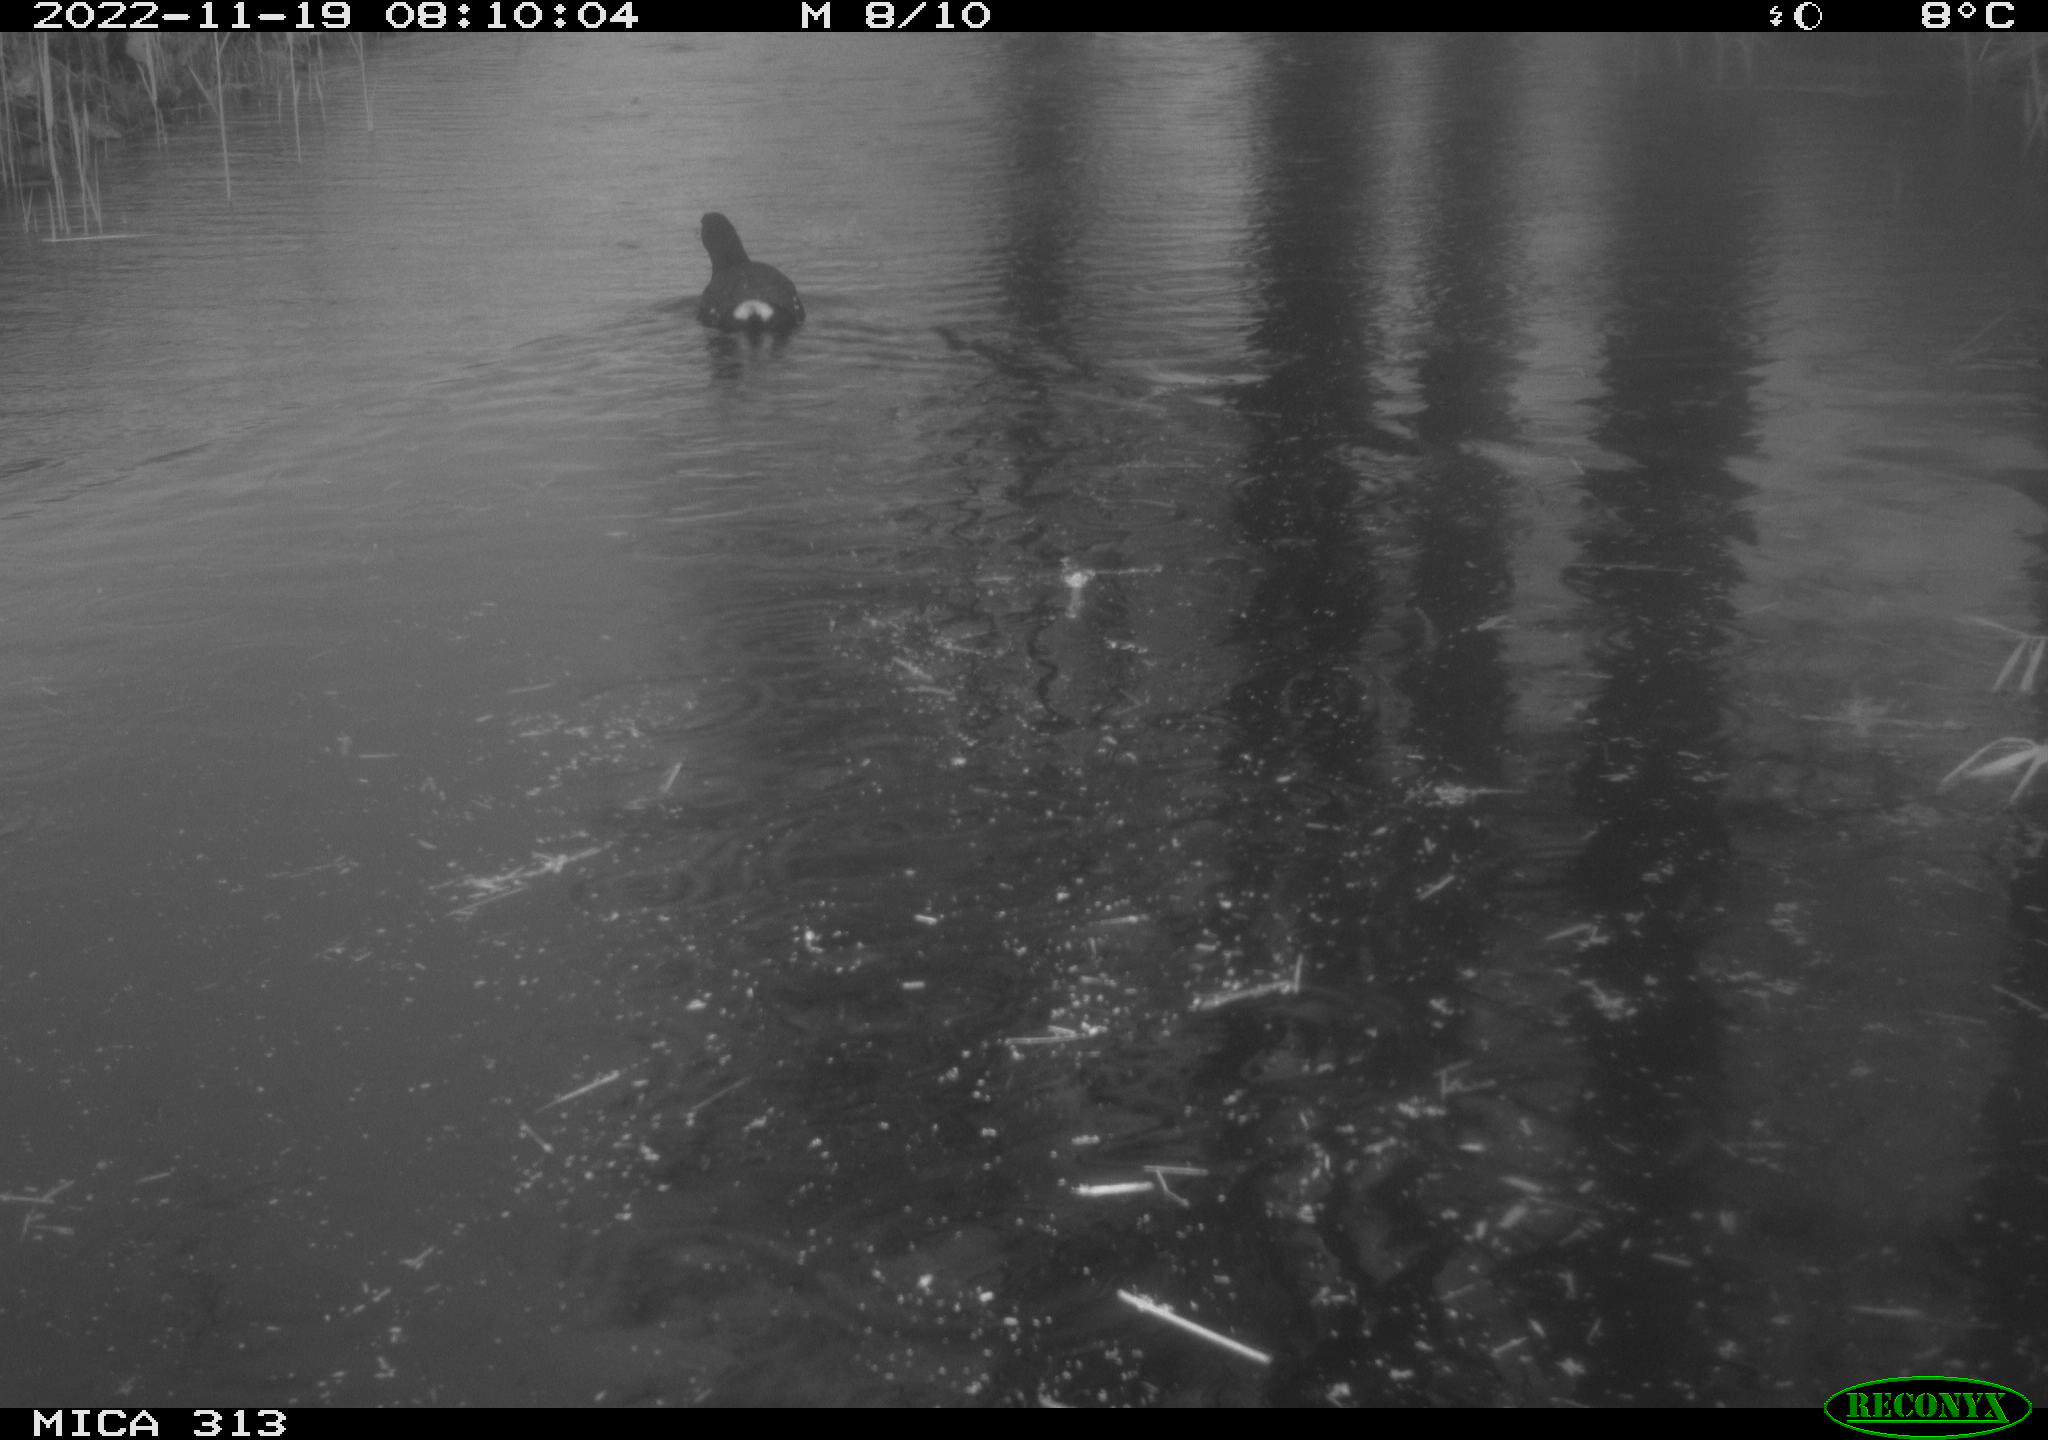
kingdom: Animalia
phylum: Chordata
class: Aves
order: Gruiformes
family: Rallidae
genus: Gallinula
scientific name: Gallinula chloropus
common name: Common moorhen
